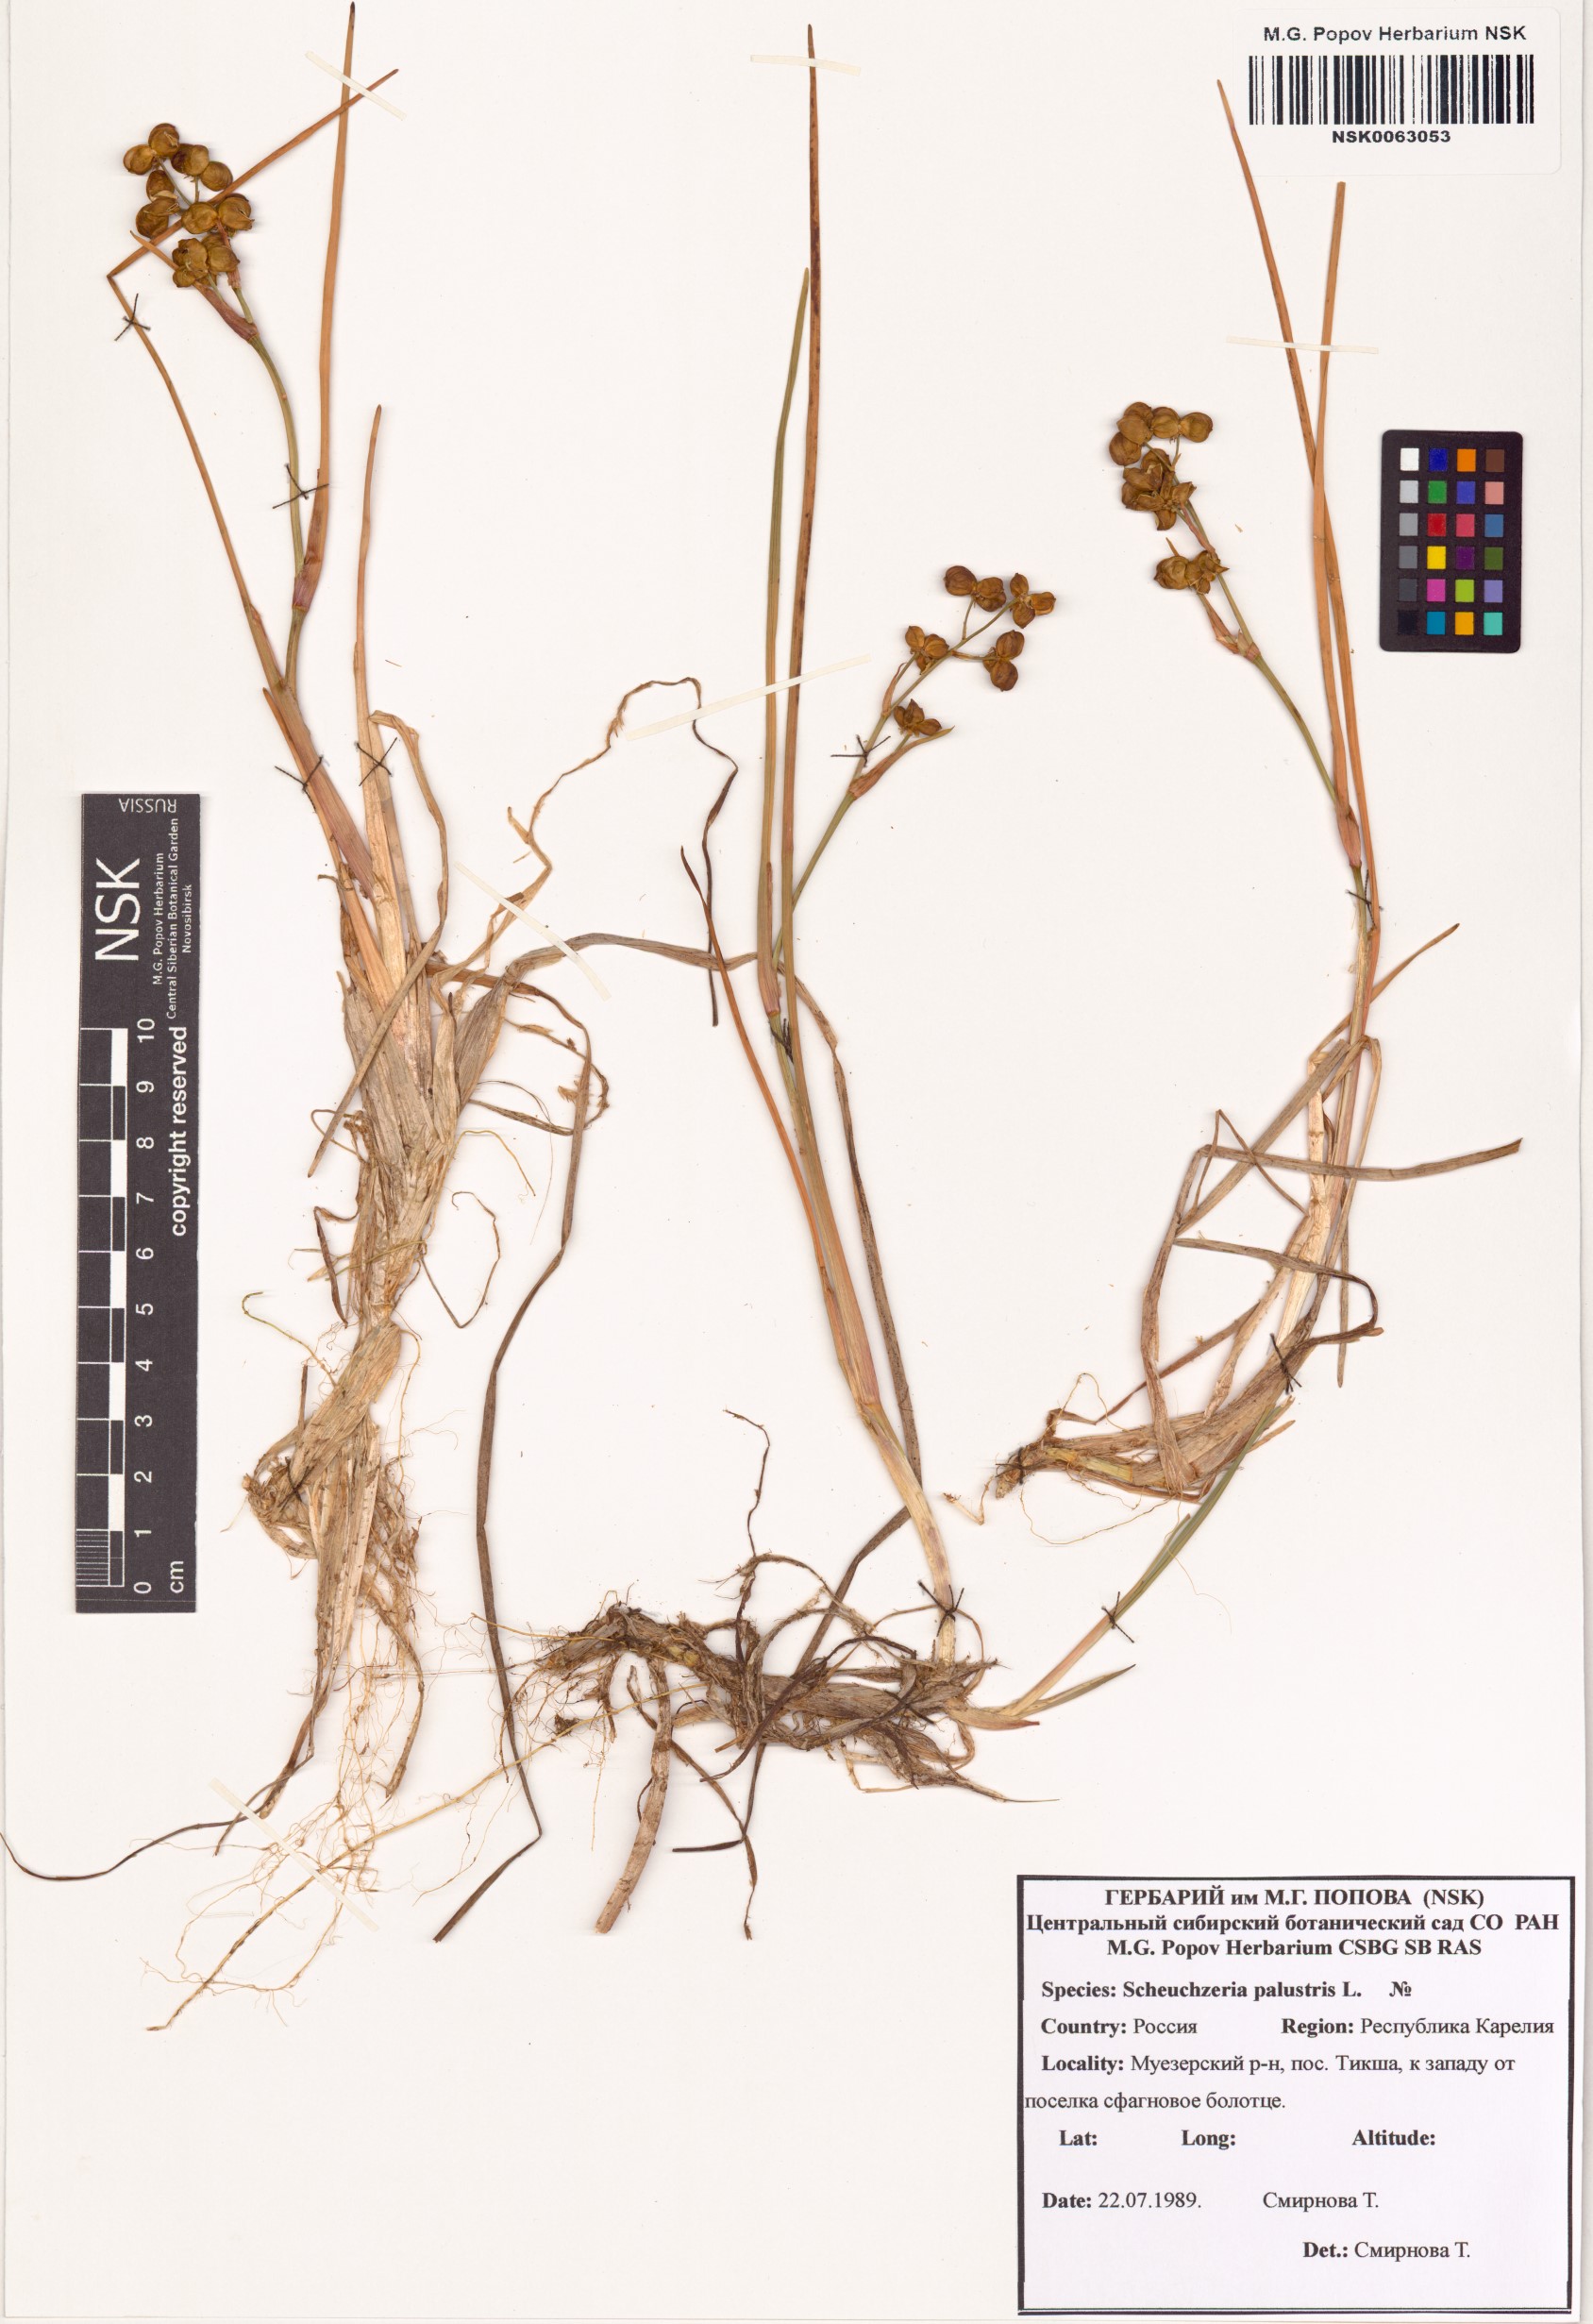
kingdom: Plantae
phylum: Tracheophyta
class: Liliopsida
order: Alismatales
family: Scheuchzeriaceae
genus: Scheuchzeria
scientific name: Scheuchzeria palustris
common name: Rannoch-rush
